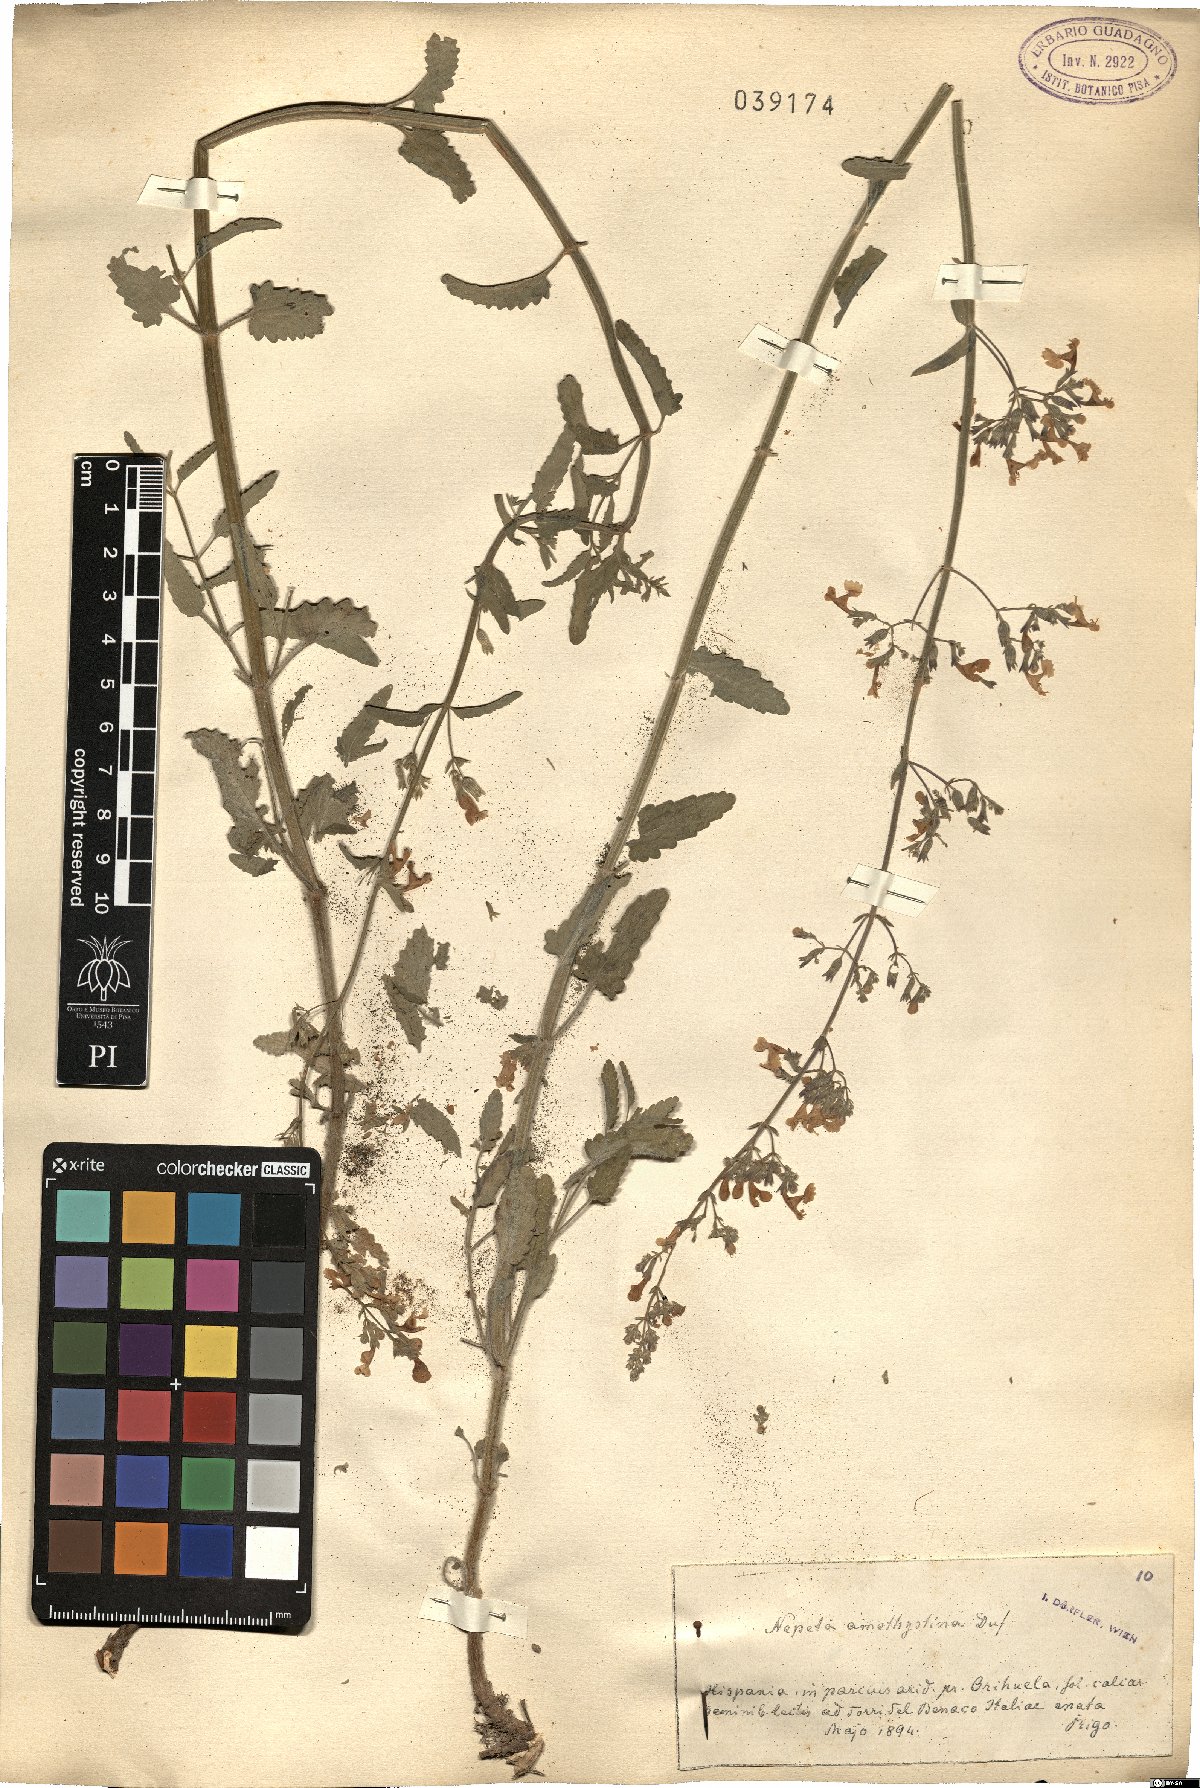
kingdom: Plantae
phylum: Tracheophyta
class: Magnoliopsida
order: Lamiales
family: Lamiaceae
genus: Nepeta
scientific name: Nepeta nepetella
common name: Lesser catmint
